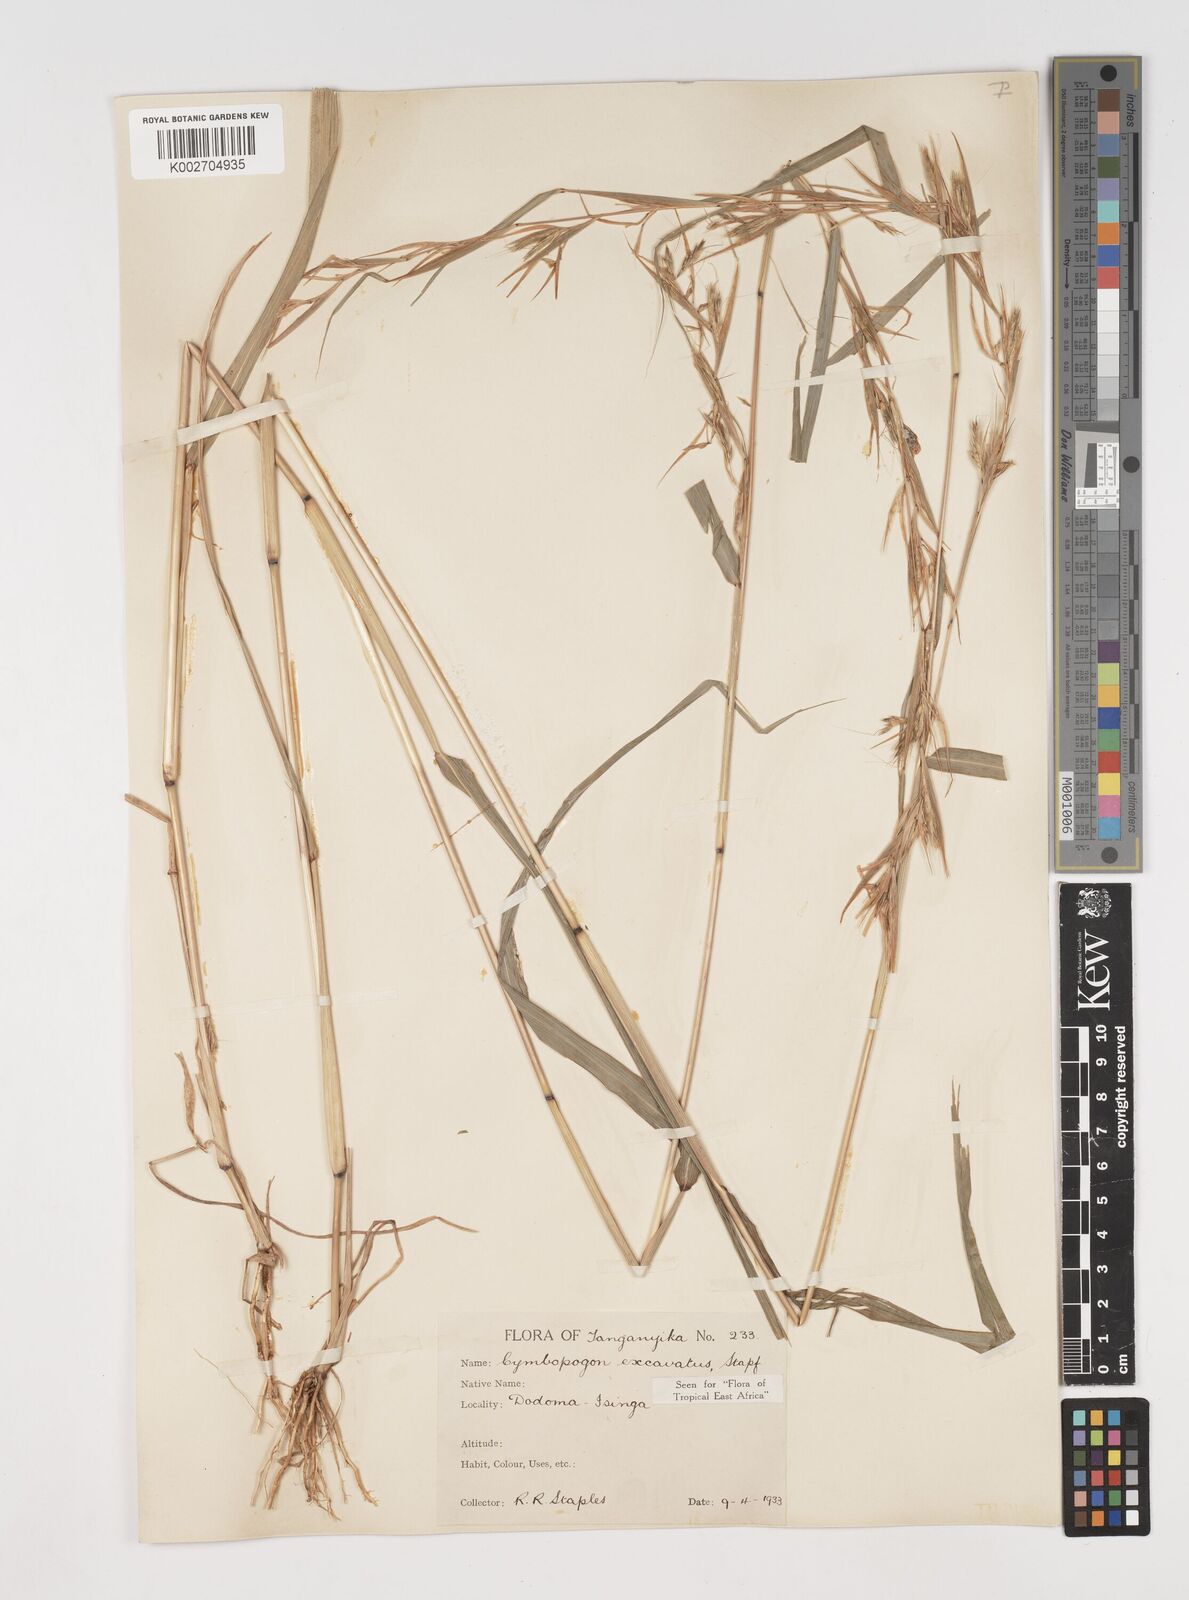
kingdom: Plantae
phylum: Tracheophyta
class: Liliopsida
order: Poales
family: Poaceae
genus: Cymbopogon
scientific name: Cymbopogon caesius
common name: Kachi grass
